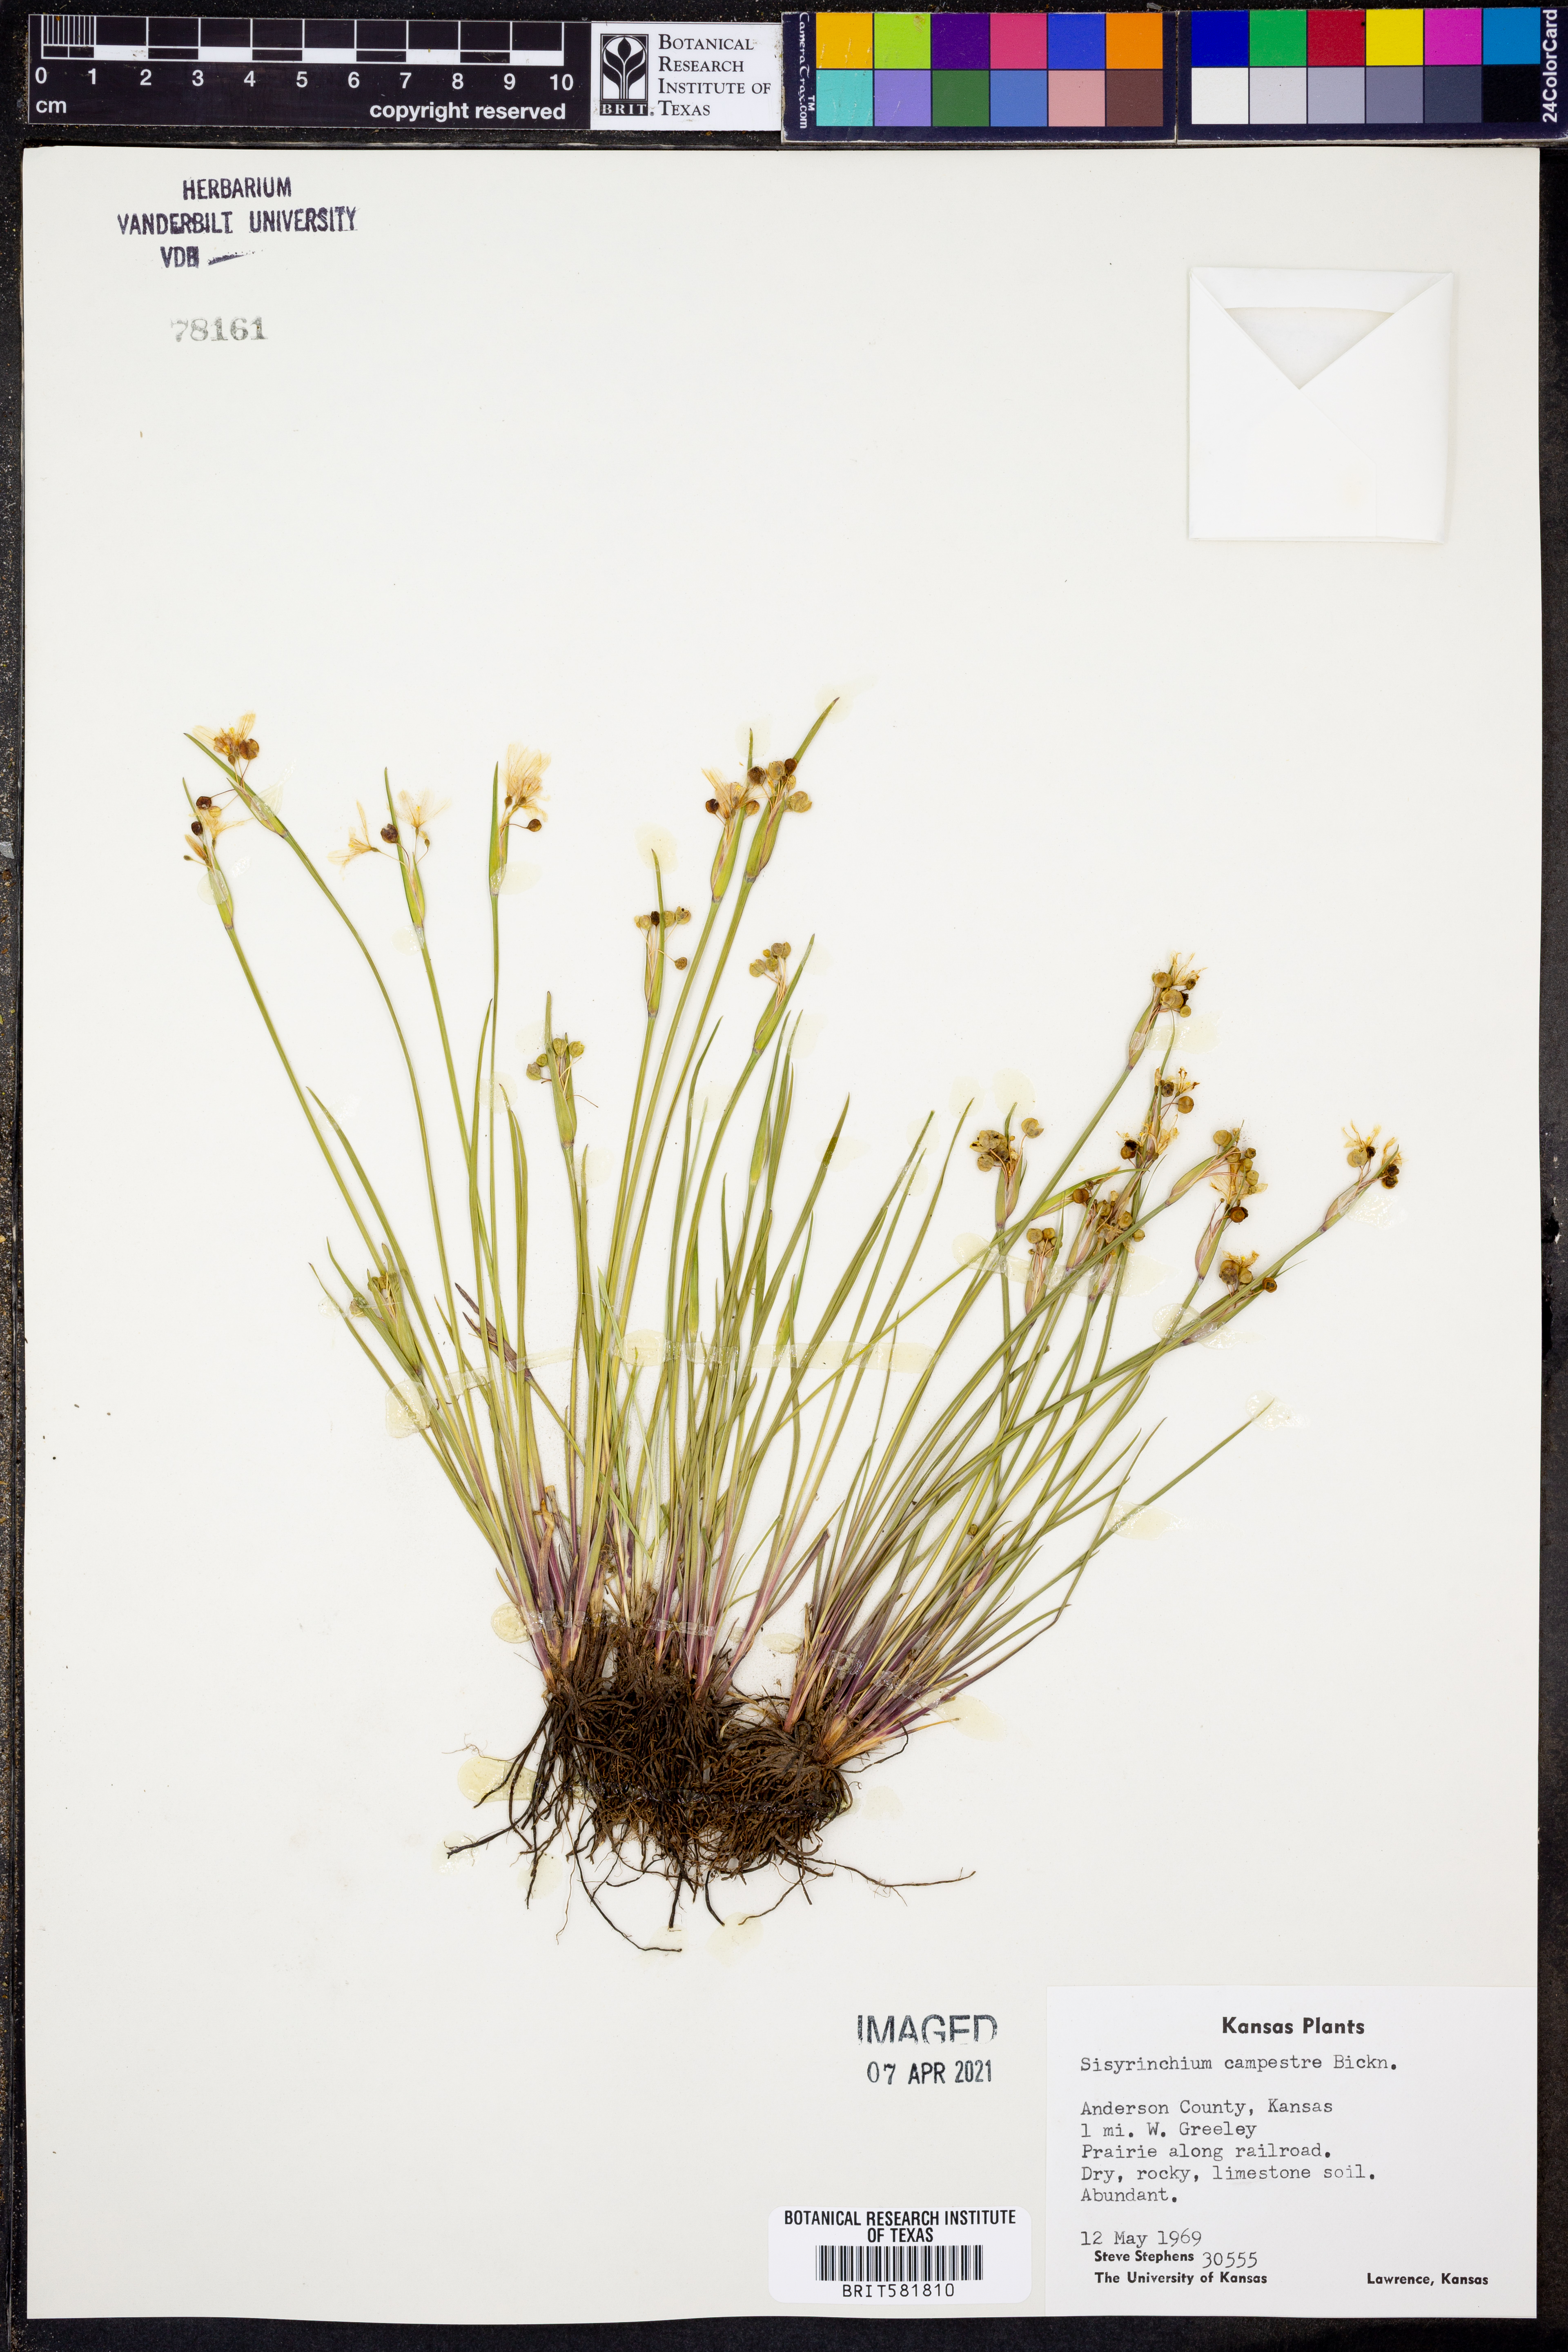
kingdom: Plantae
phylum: Tracheophyta
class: Liliopsida
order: Asparagales
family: Iridaceae
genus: Sisyrinchium
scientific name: Sisyrinchium campestre
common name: Prairie blue-eyed-grass
